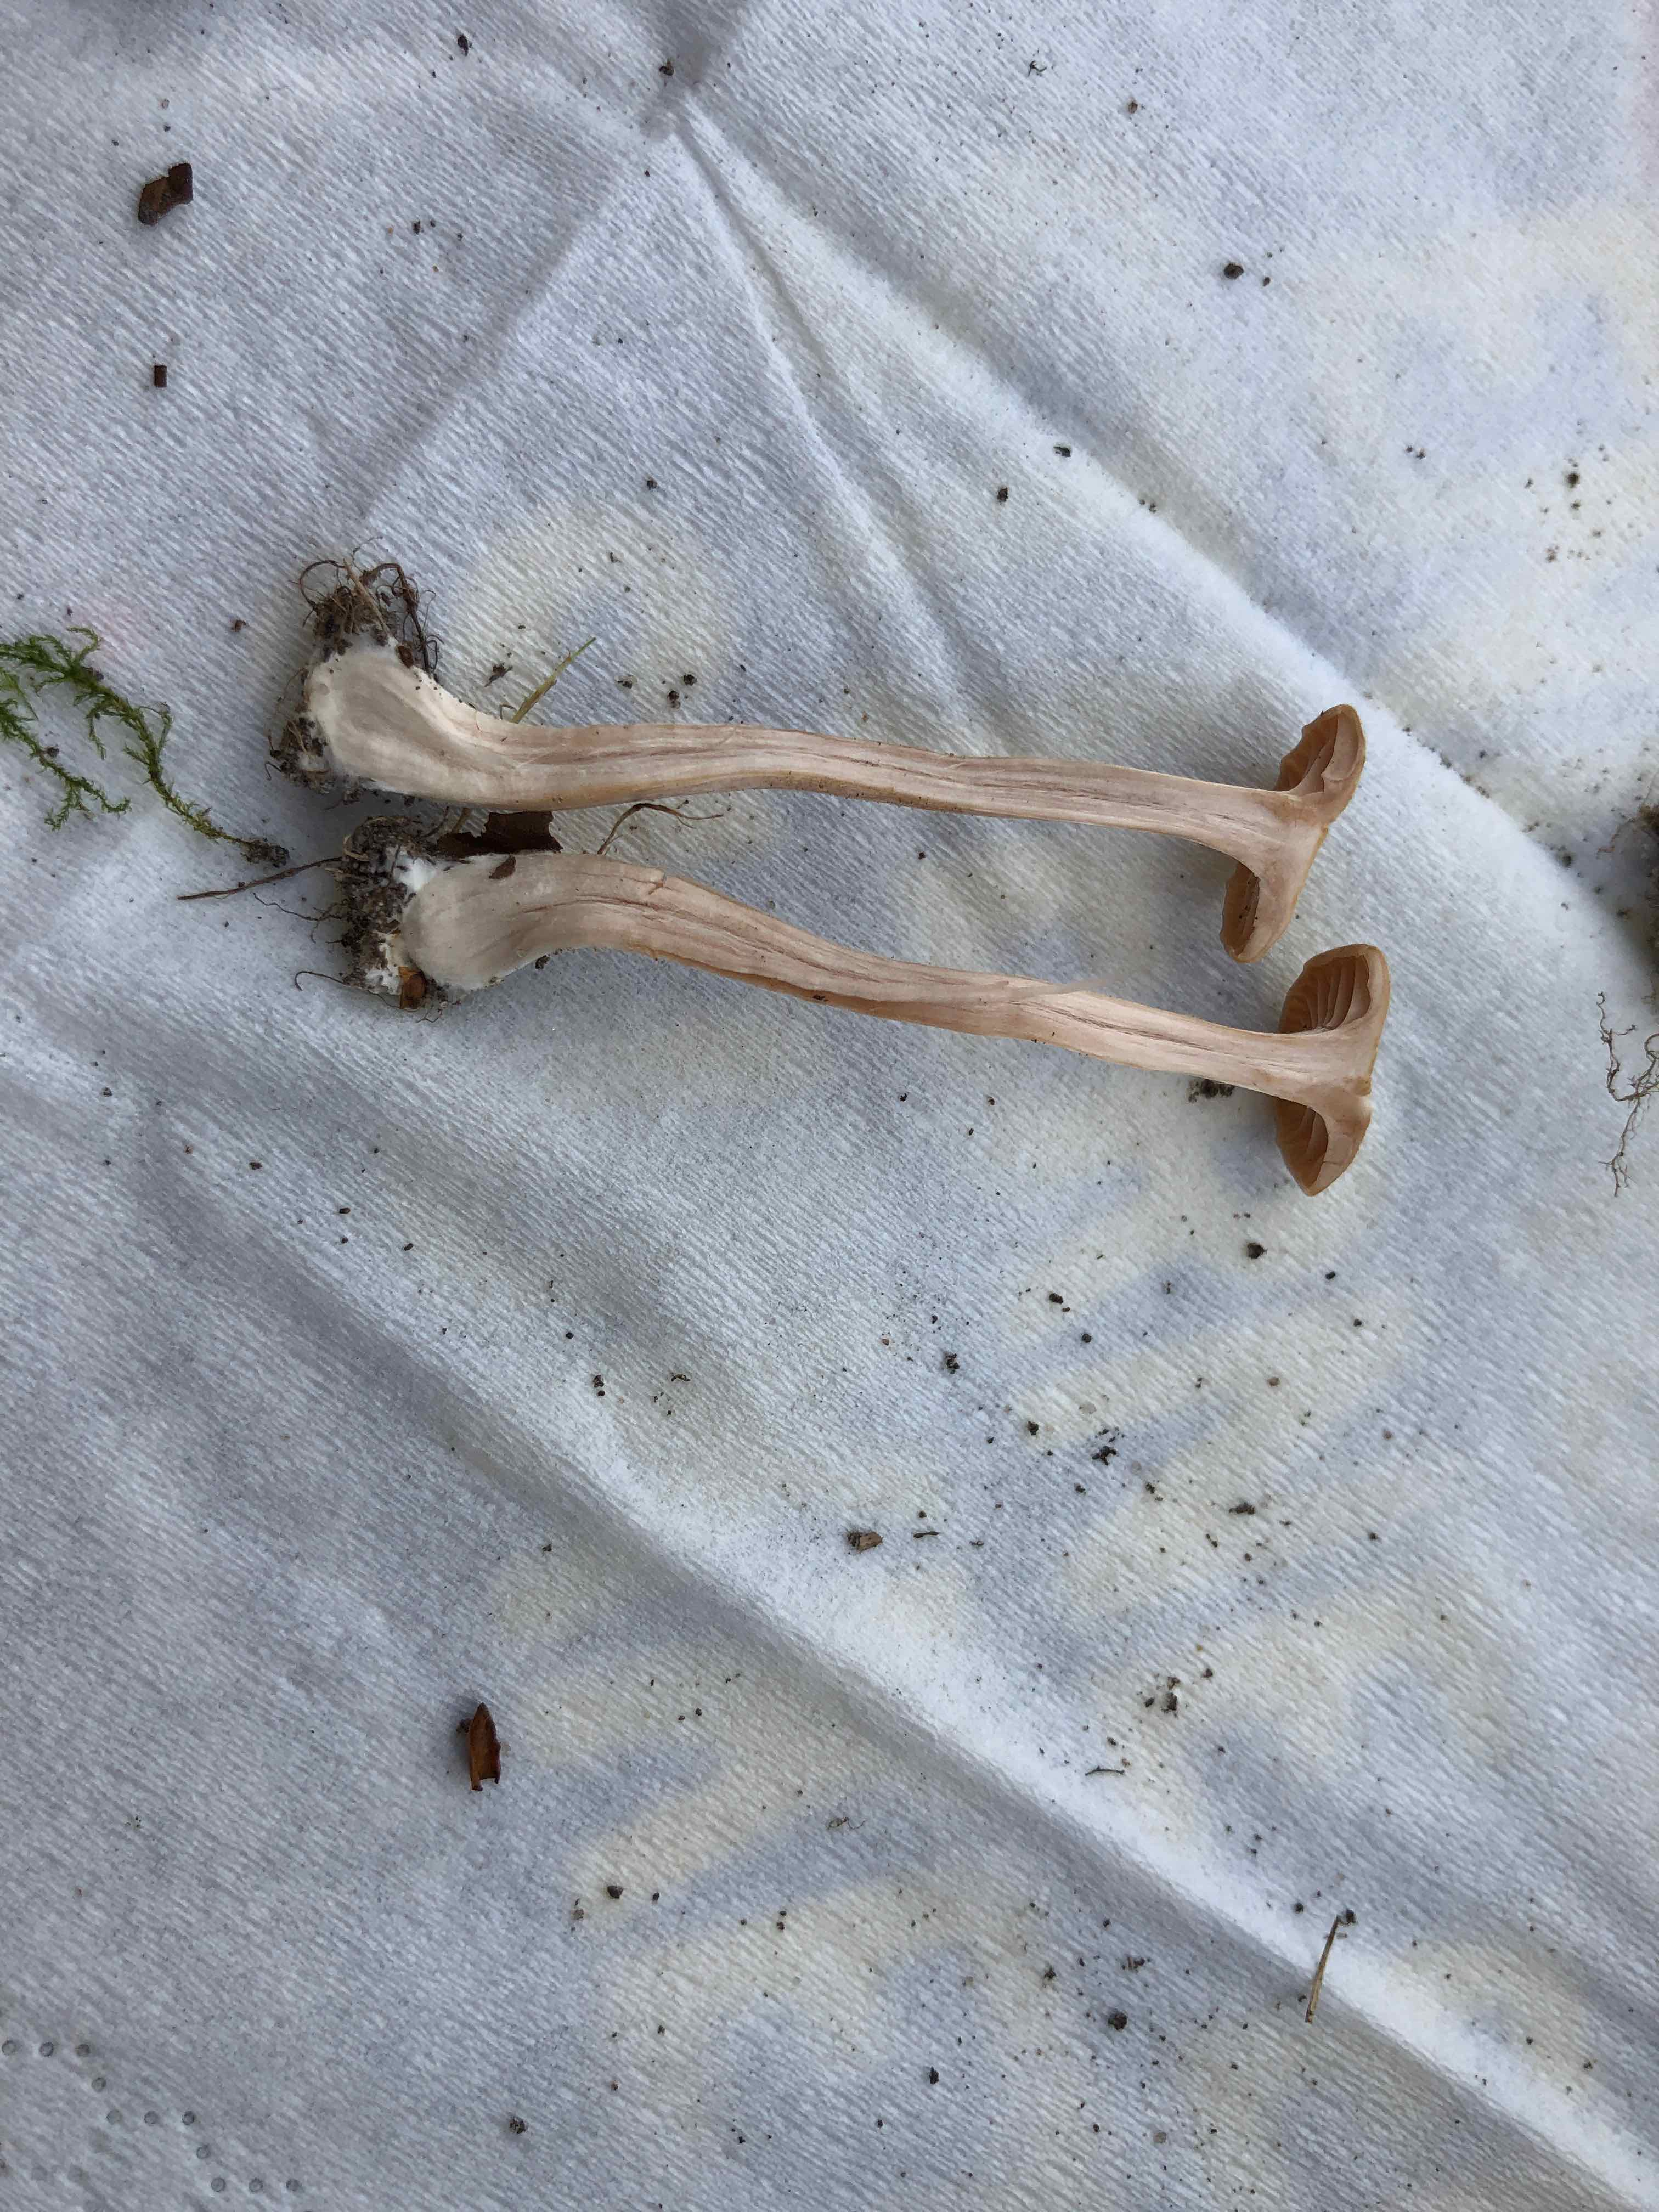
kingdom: Fungi
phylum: Basidiomycota
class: Agaricomycetes
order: Agaricales
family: Hydnangiaceae
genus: Laccaria
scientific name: Laccaria
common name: ametysthat
